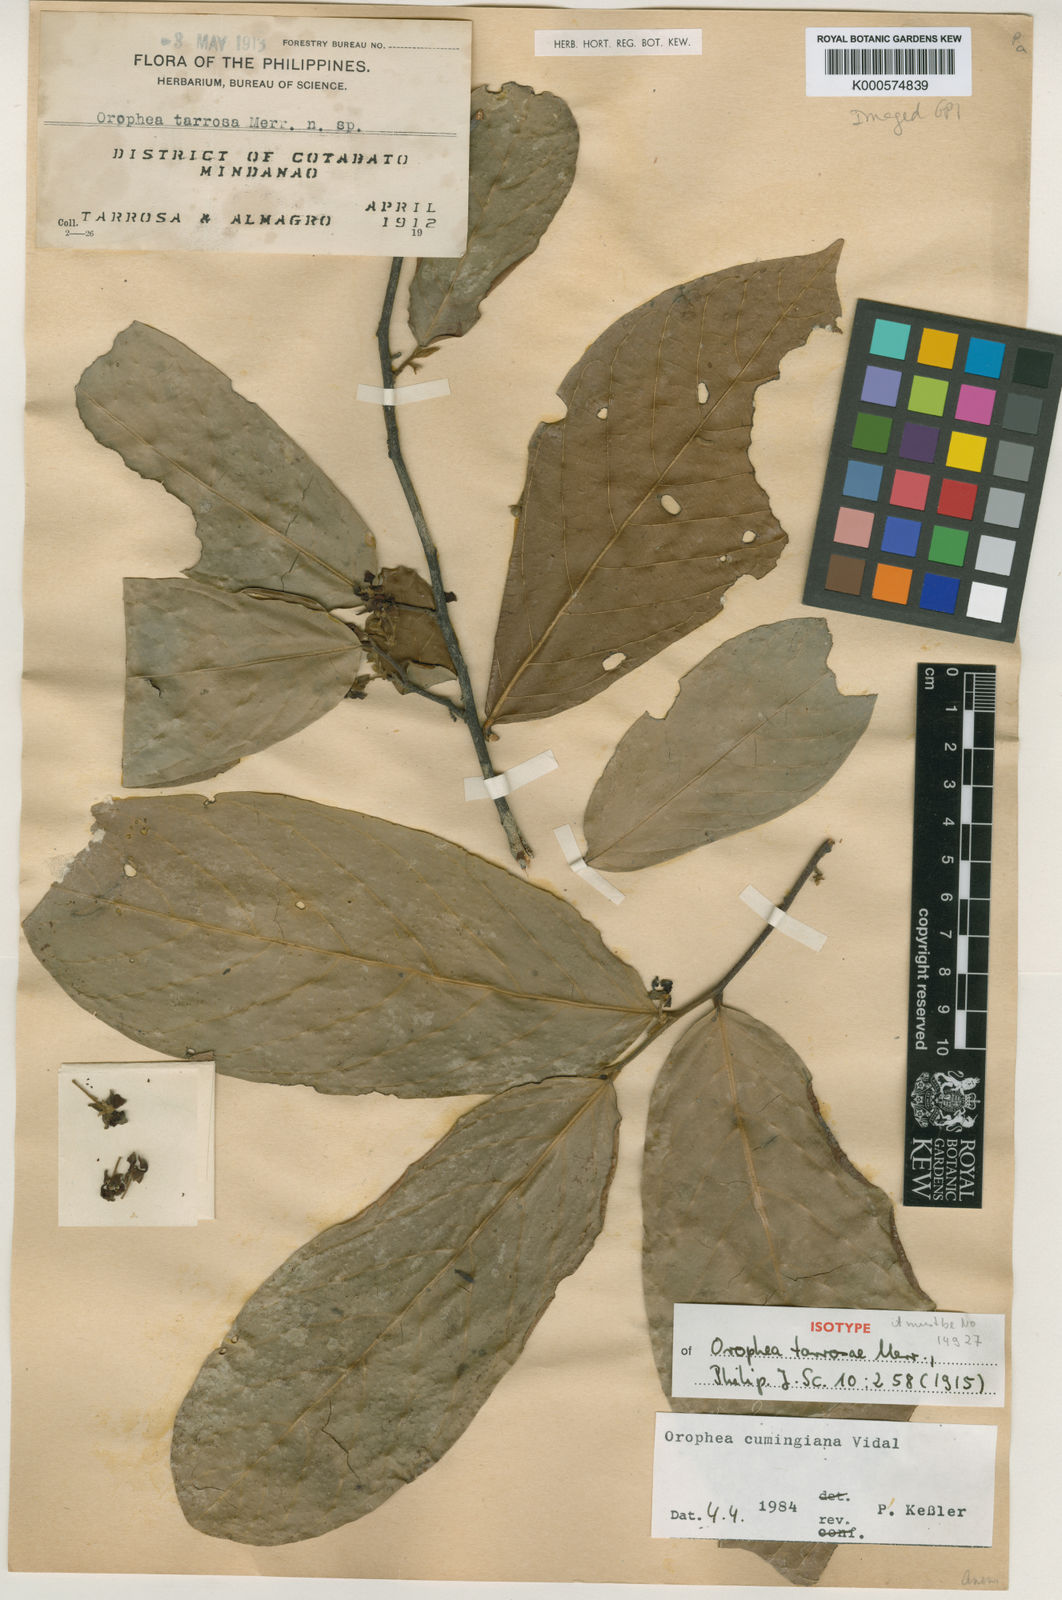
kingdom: Plantae
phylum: Tracheophyta
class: Magnoliopsida
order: Magnoliales
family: Annonaceae
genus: Orophea
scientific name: Orophea cumingiana
